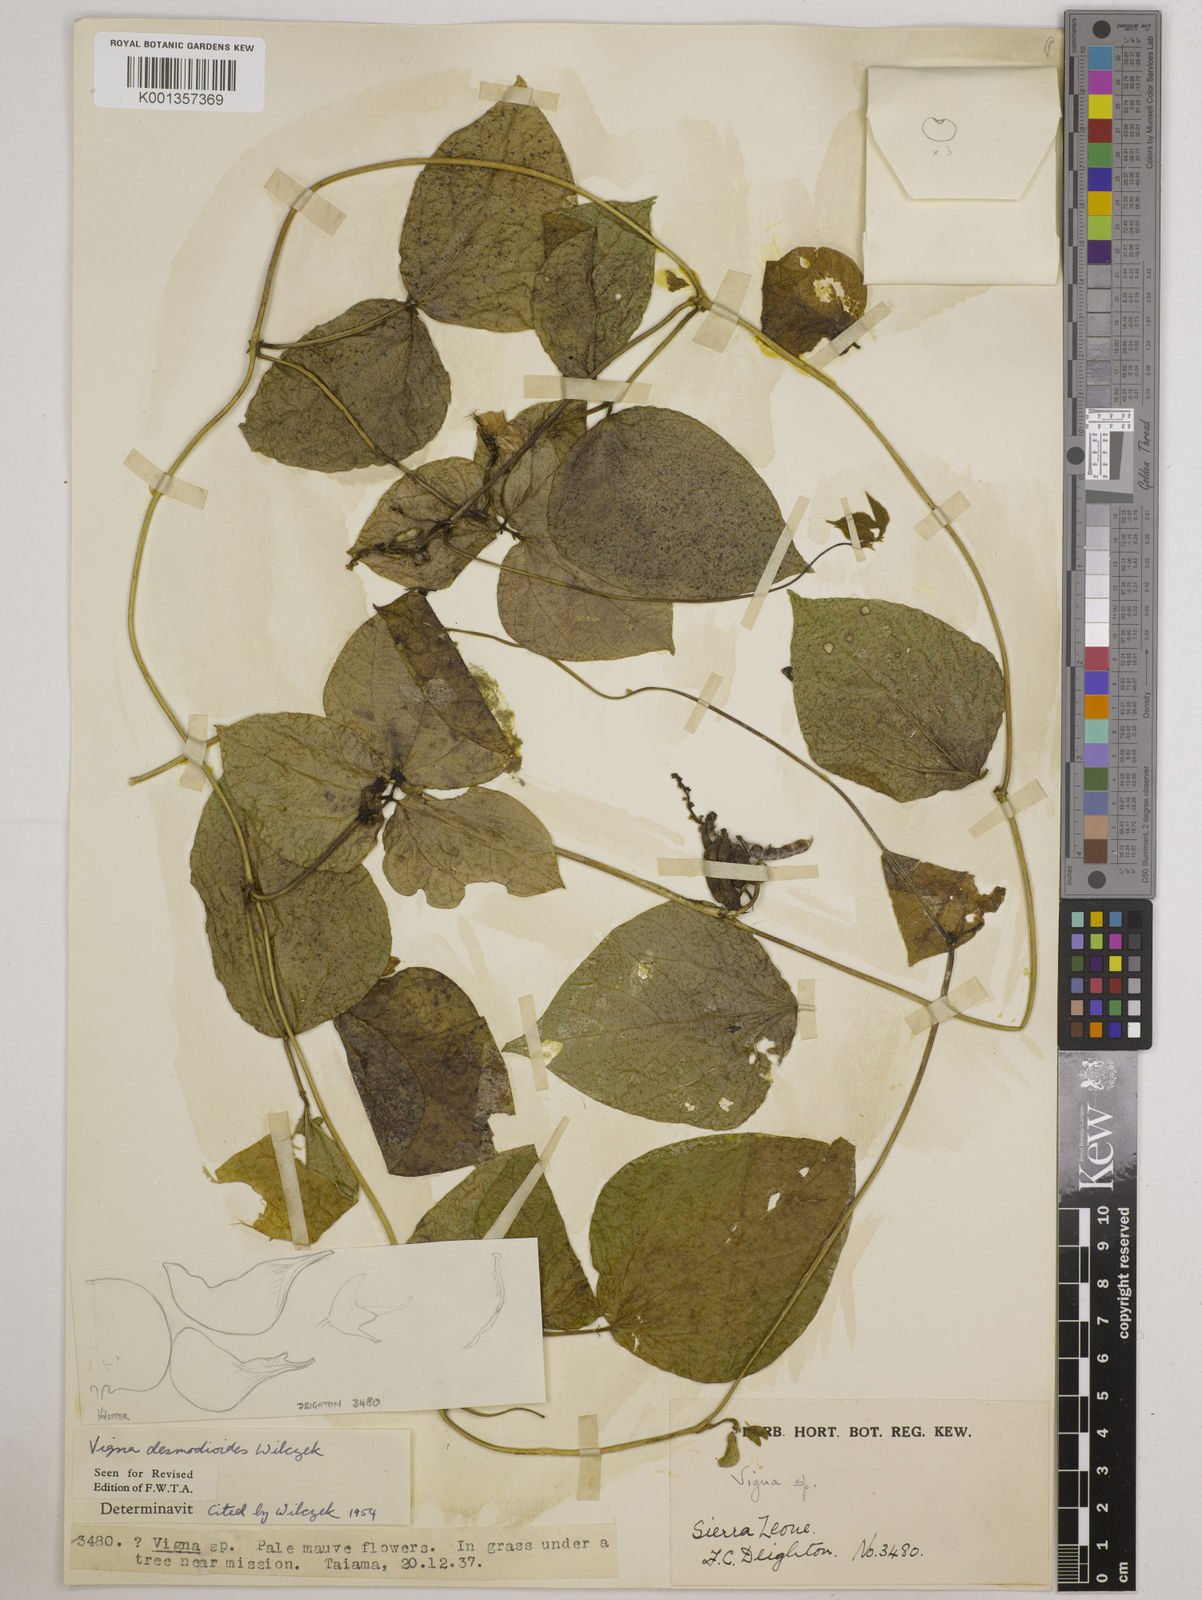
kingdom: Plantae
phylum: Tracheophyta
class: Magnoliopsida
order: Fabales
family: Fabaceae
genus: Vigna
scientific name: Vigna gracilis
